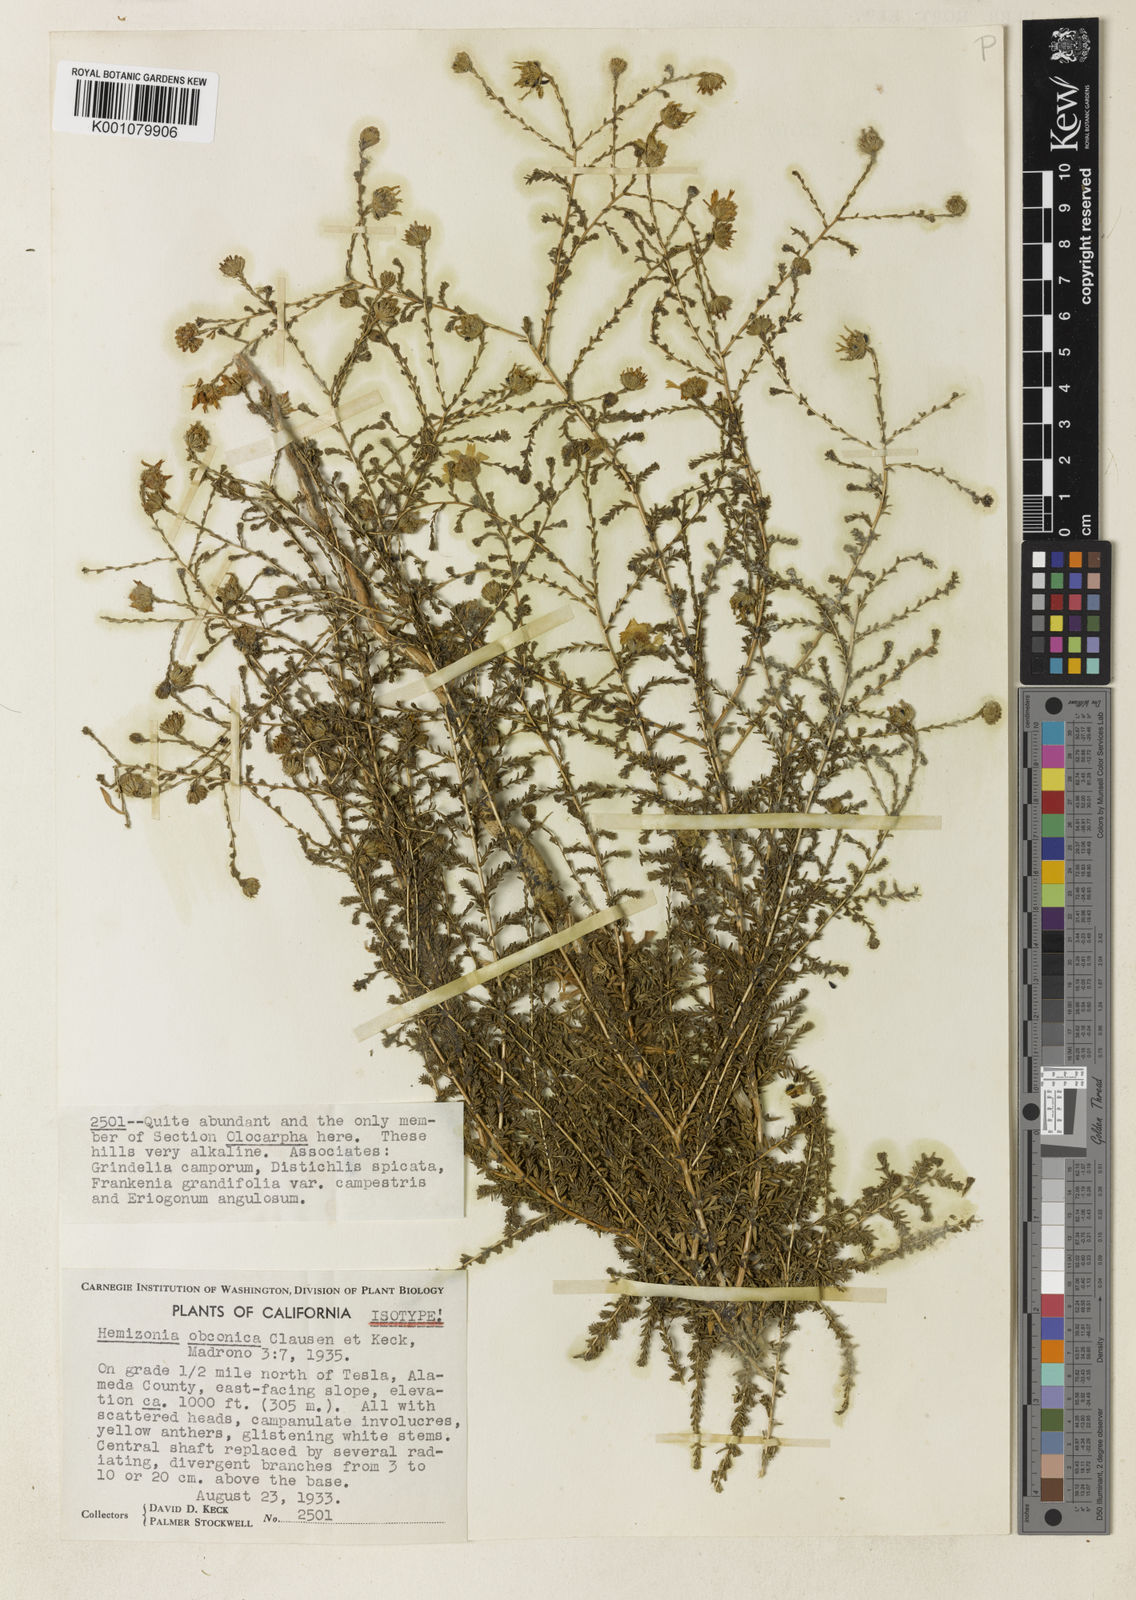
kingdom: Plantae
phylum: Tracheophyta
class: Magnoliopsida
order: Asterales
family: Asteraceae
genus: Holocarpha
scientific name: Holocarpha obconica
